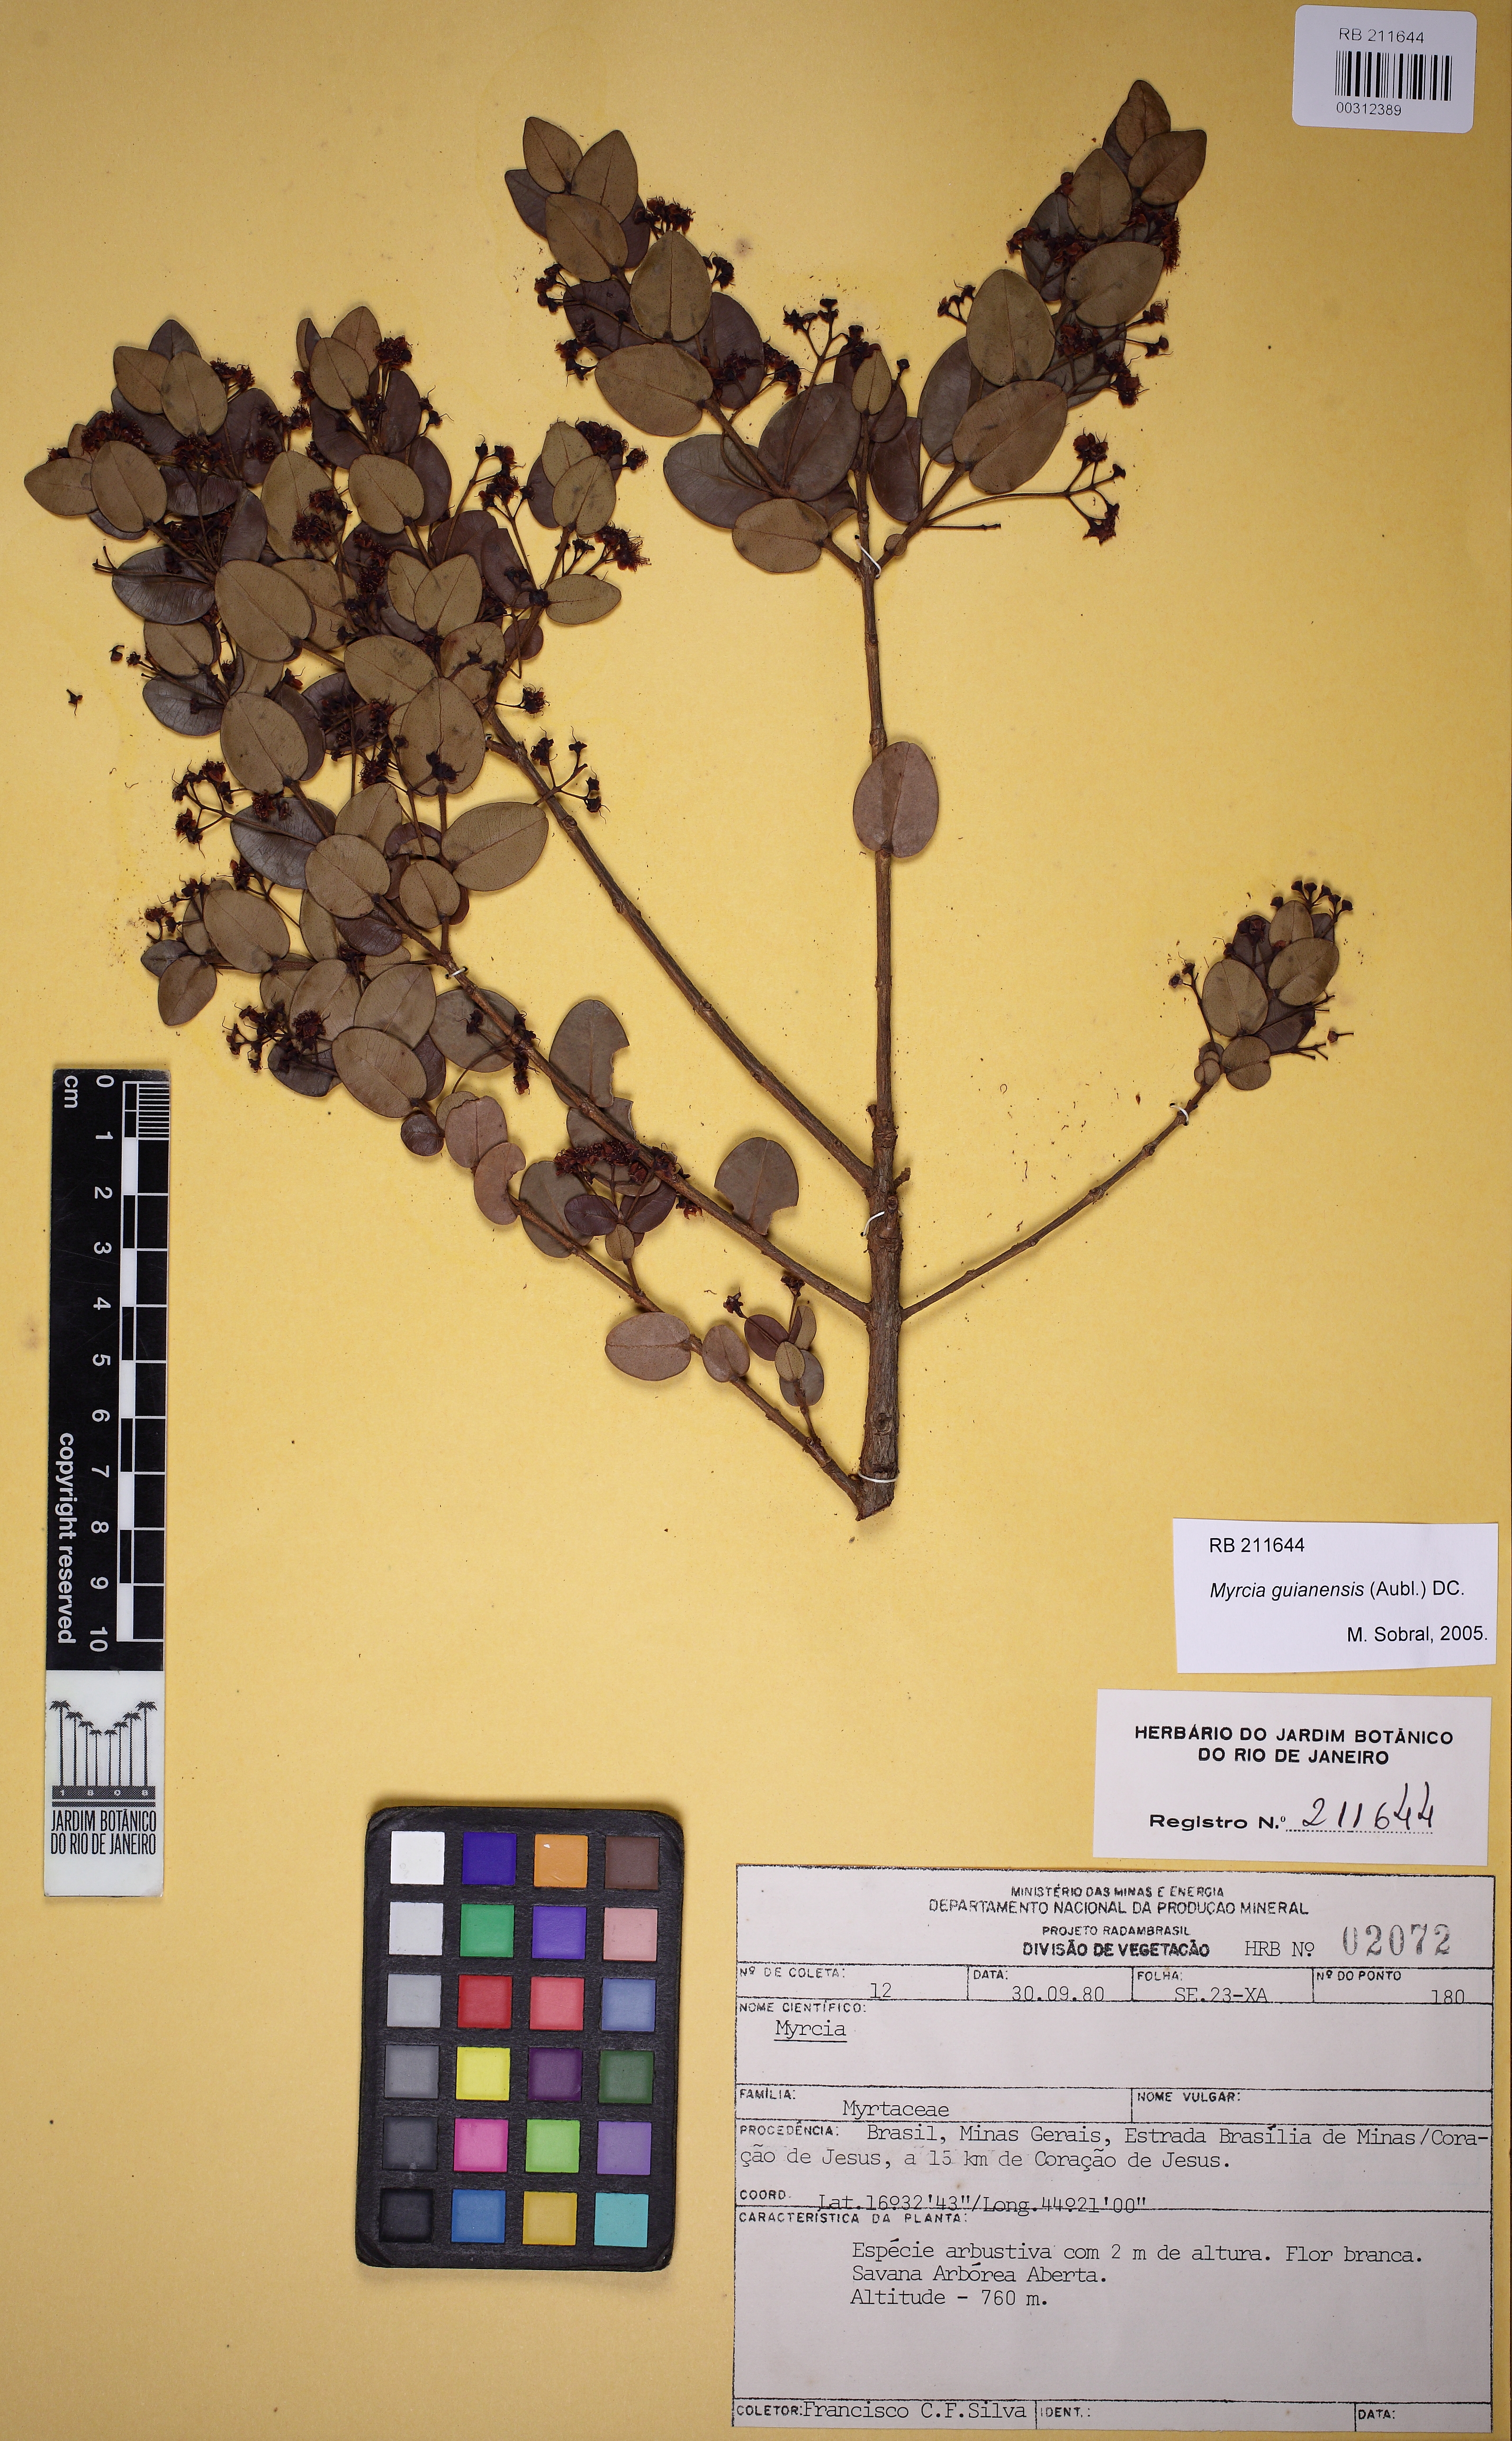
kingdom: Plantae
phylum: Tracheophyta
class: Magnoliopsida
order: Myrtales
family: Myrtaceae
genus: Myrcia
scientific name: Myrcia guianensis
